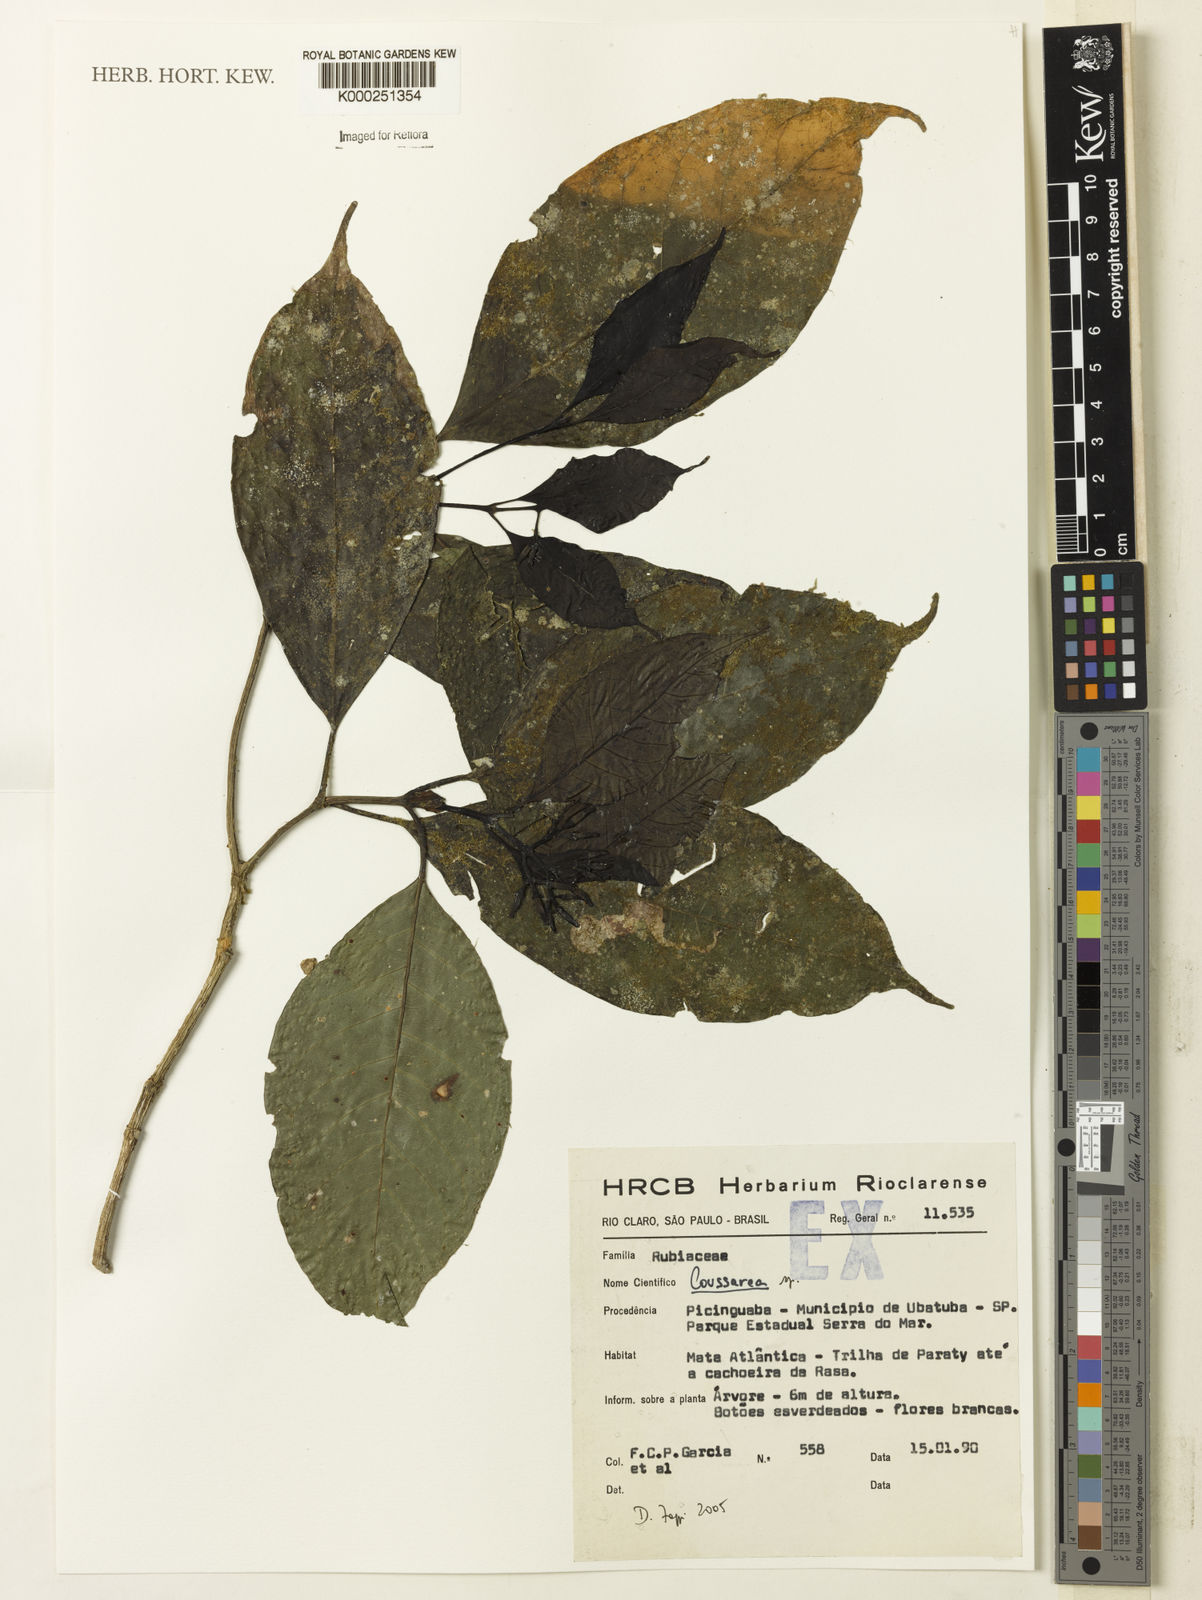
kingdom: Plantae
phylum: Tracheophyta
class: Magnoliopsida
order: Gentianales
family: Rubiaceae
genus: Coussarea
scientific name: Coussarea
